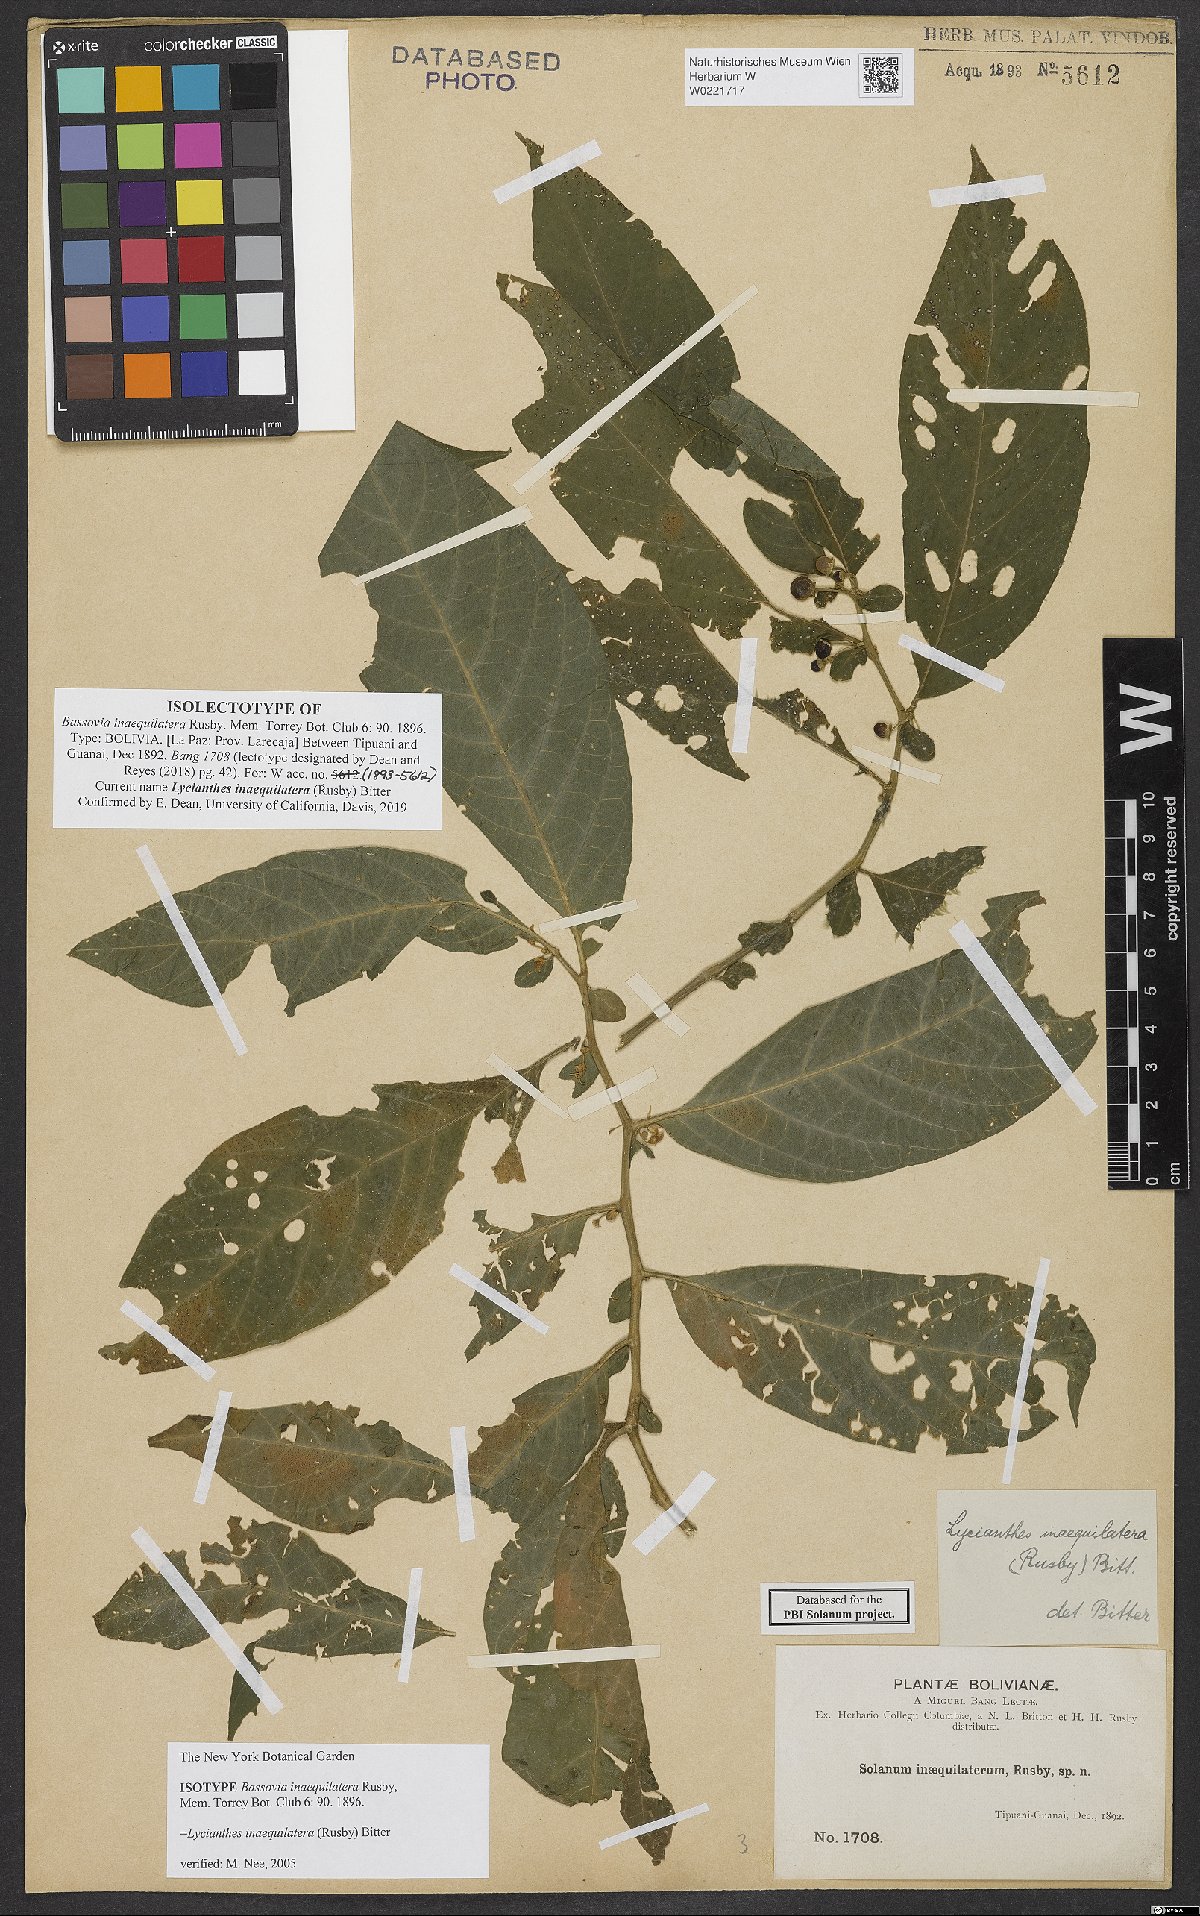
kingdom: Plantae
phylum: Tracheophyta
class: Magnoliopsida
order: Solanales
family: Solanaceae
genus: Lycianthes
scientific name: Lycianthes inaequilatera
